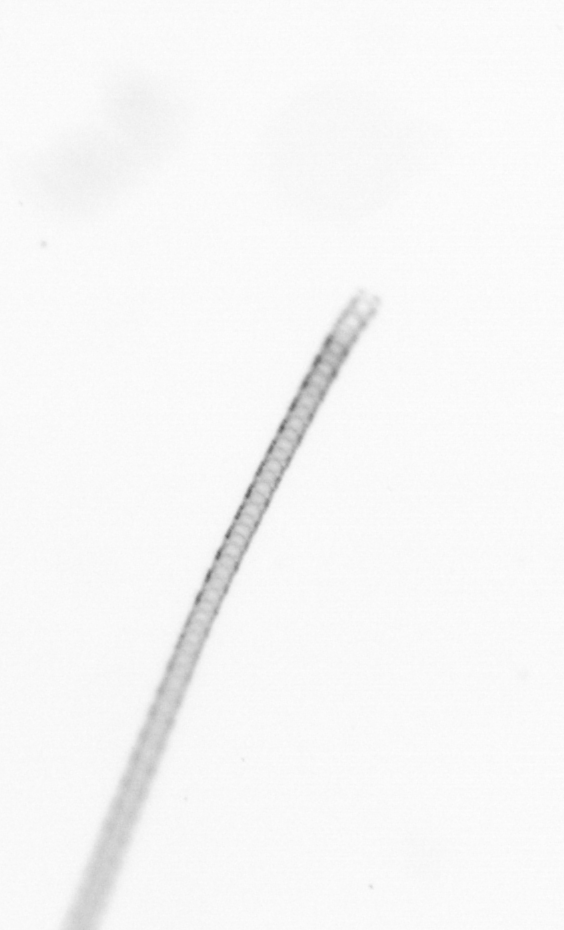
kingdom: Chromista
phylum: Ochrophyta
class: Bacillariophyceae
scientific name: Bacillariophyceae
